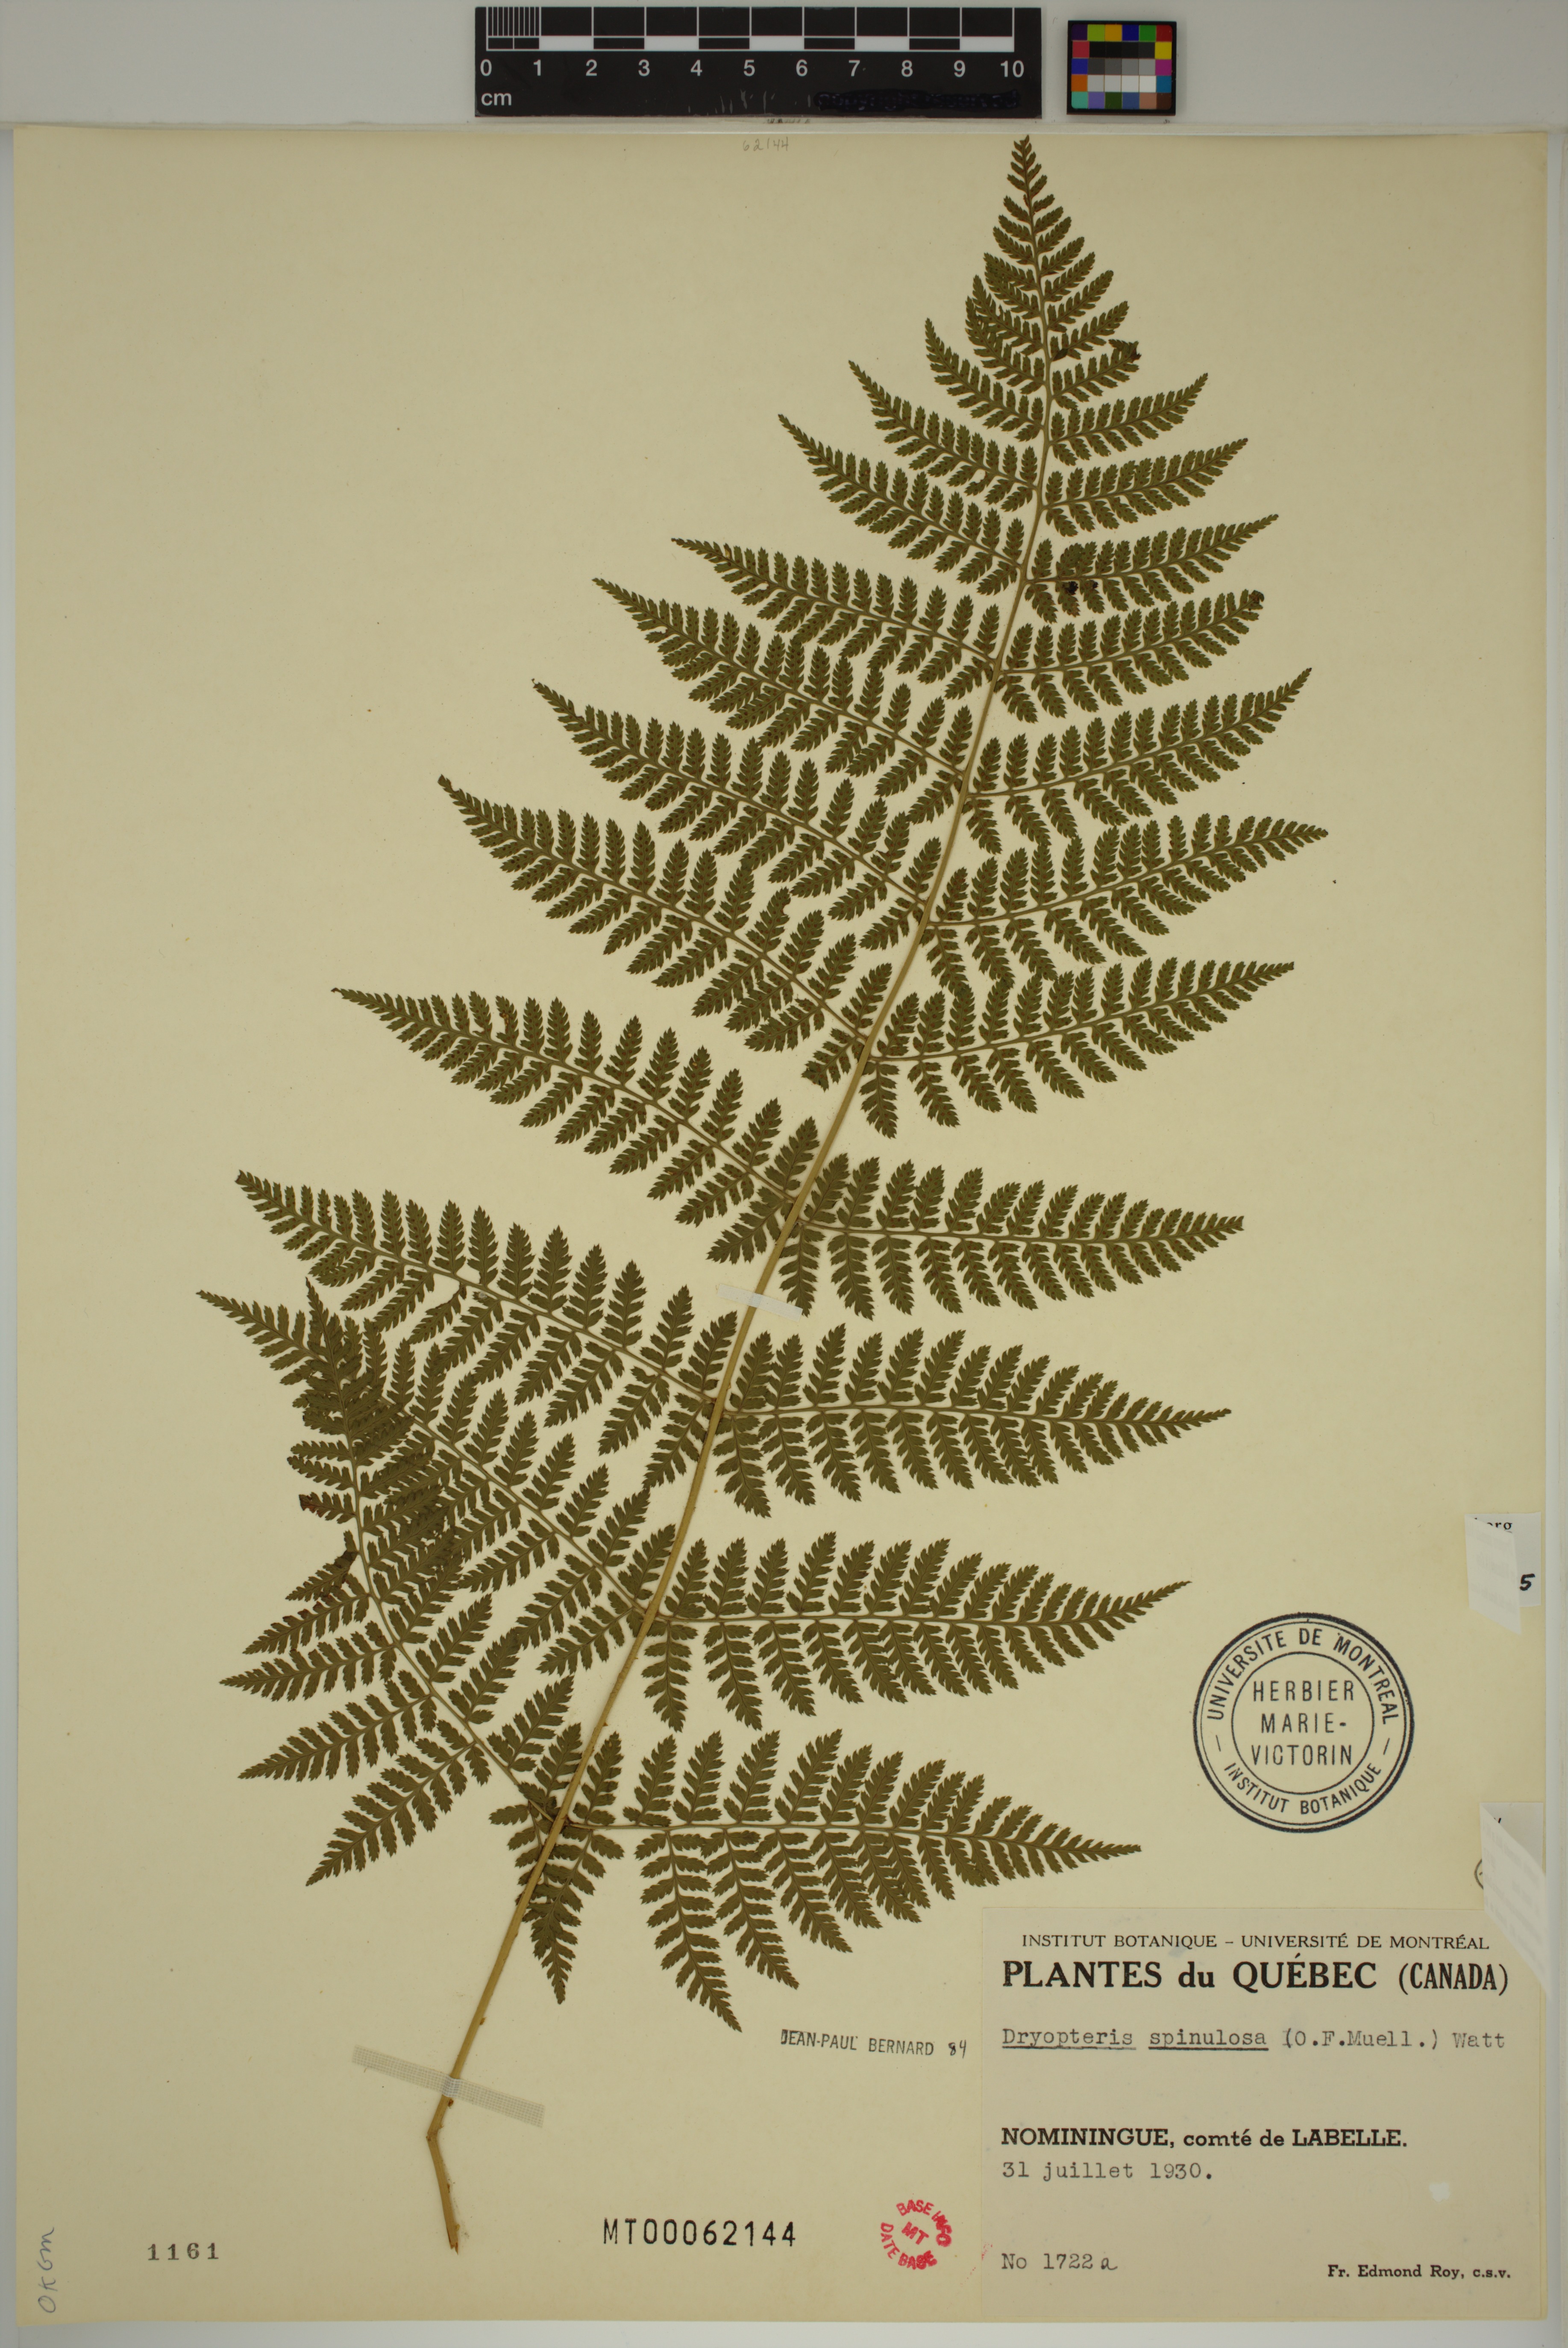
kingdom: Plantae
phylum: Tracheophyta
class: Polypodiopsida
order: Polypodiales
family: Dryopteridaceae
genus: Dryopteris
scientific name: Dryopteris intermedia
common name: Evergreen wood fern
